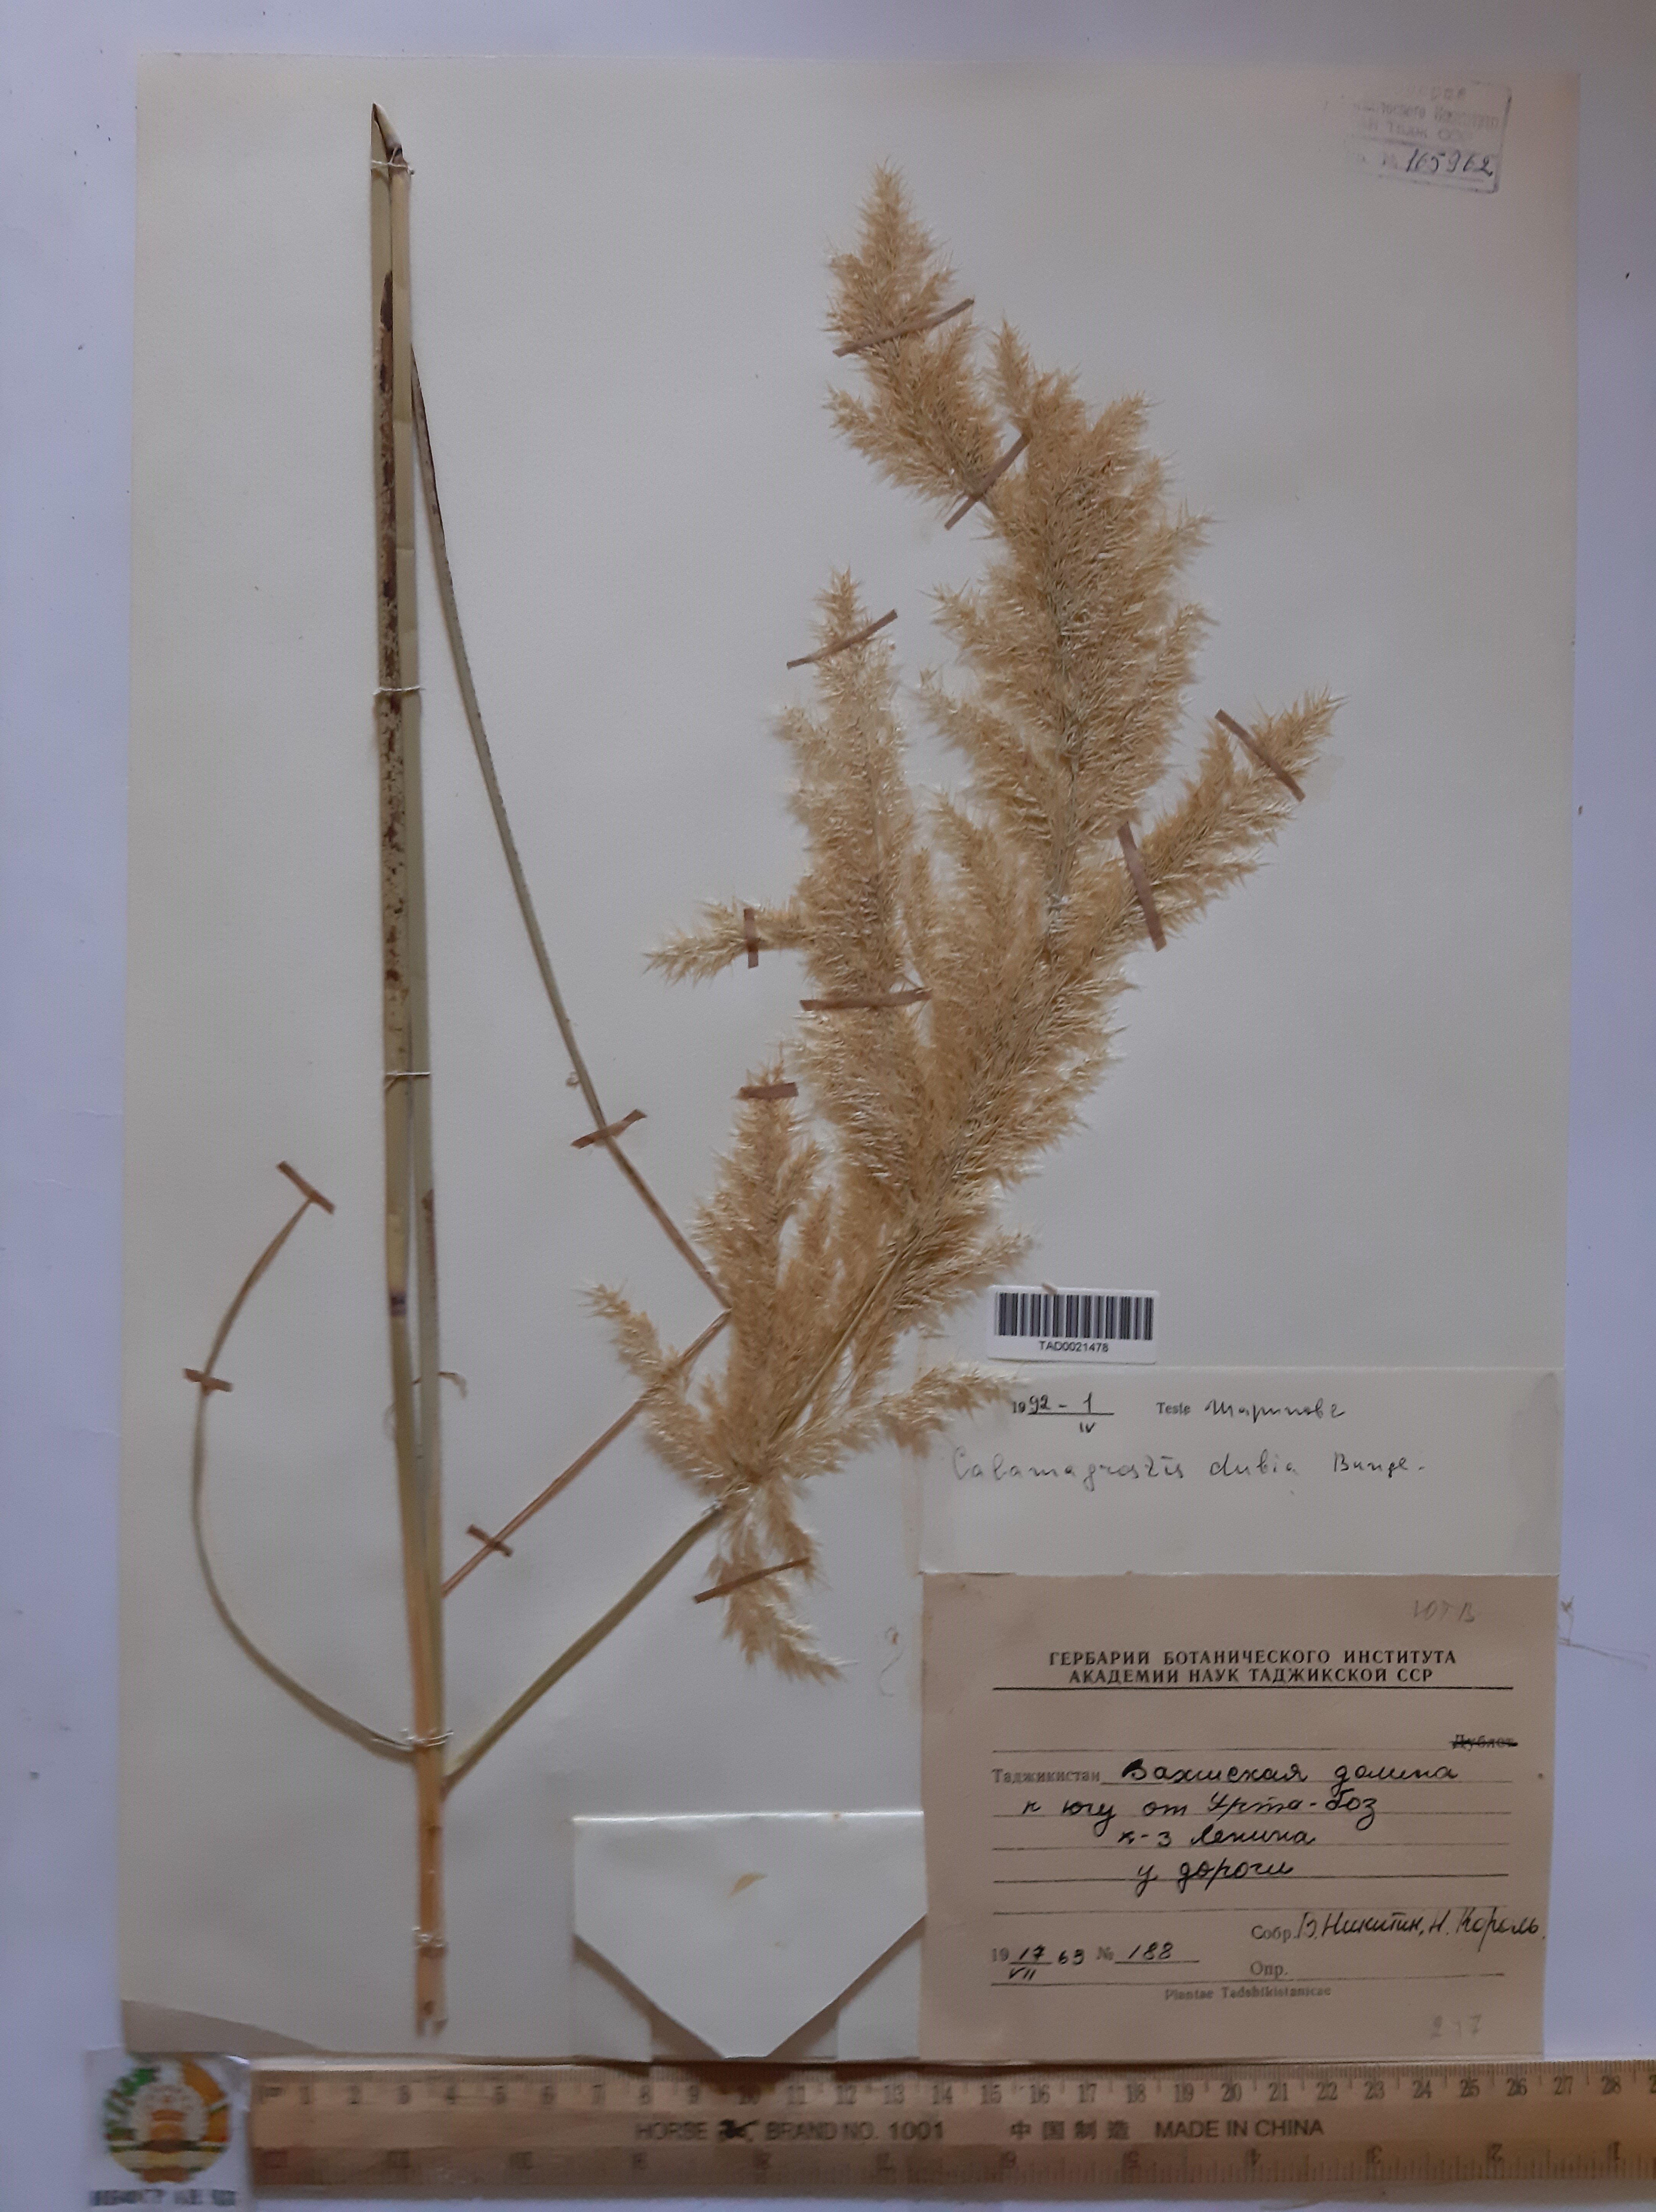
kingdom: Plantae
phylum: Tracheophyta
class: Liliopsida
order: Poales
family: Poaceae
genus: Calamagrostis
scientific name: Calamagrostis pseudophragmites
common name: Coastal small-reed
